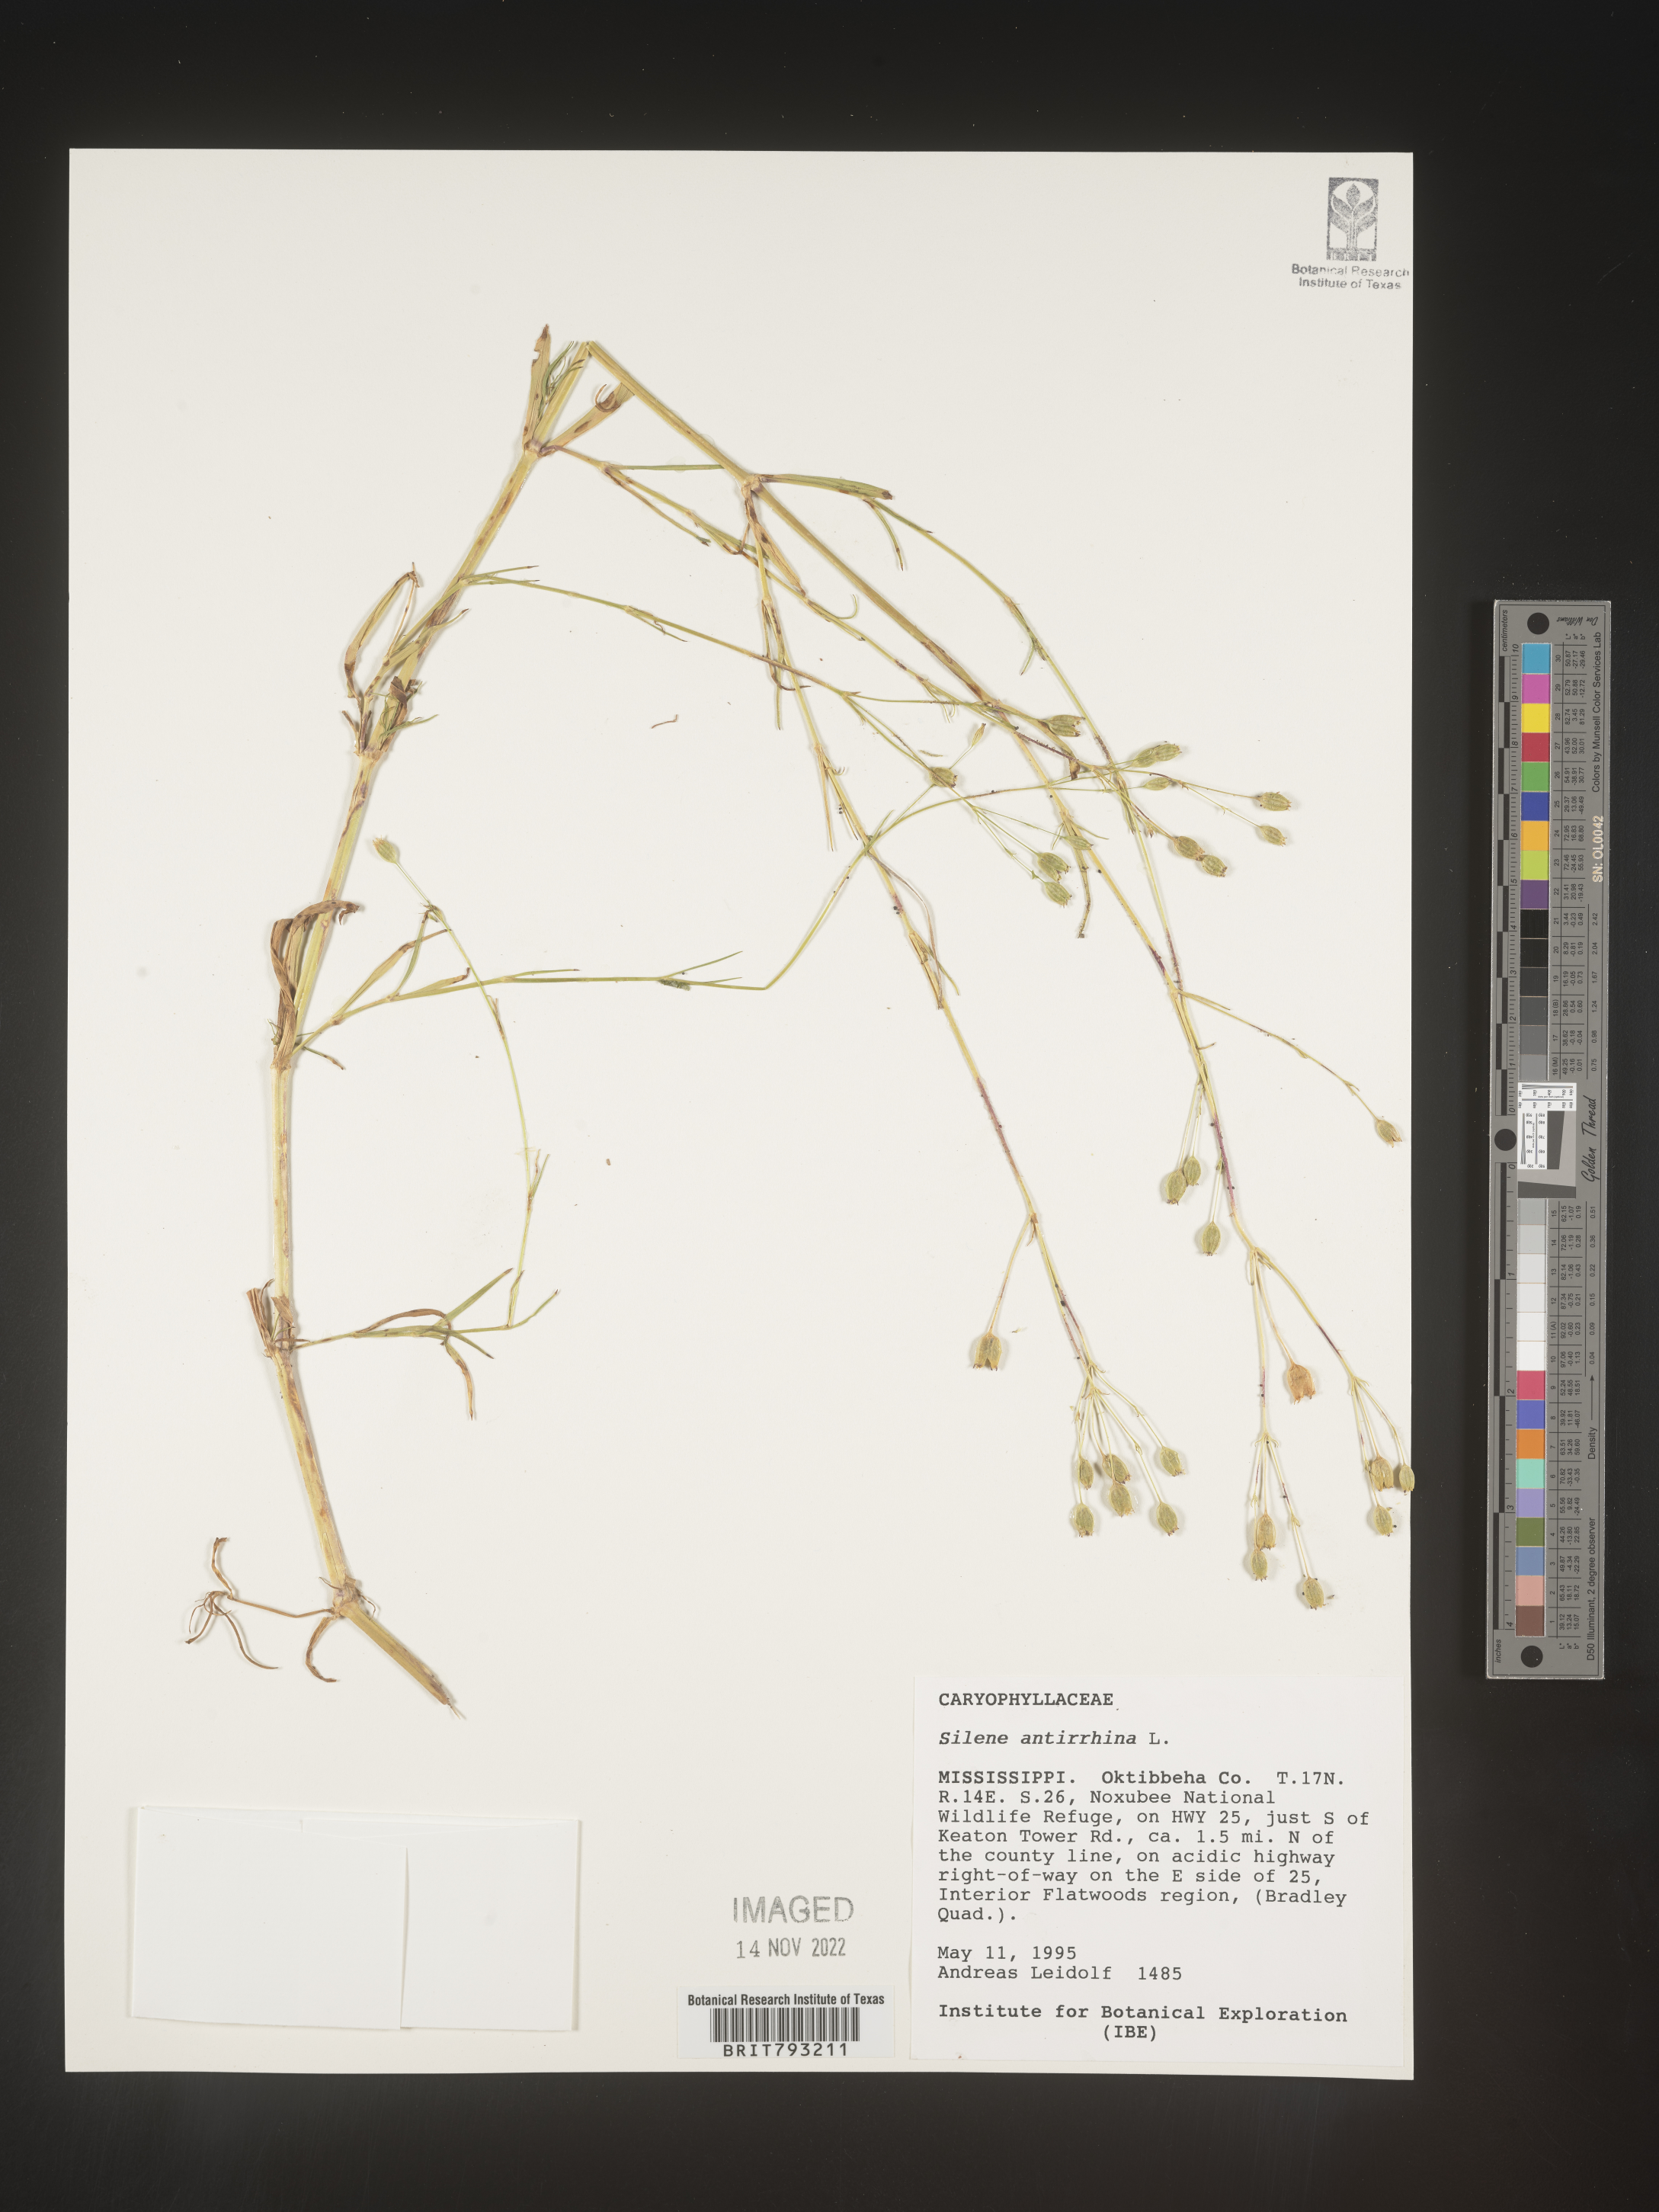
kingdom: Plantae
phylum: Tracheophyta
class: Magnoliopsida
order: Caryophyllales
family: Caryophyllaceae
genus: Silene
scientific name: Silene antirrhina
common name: Sleepy catchfly
